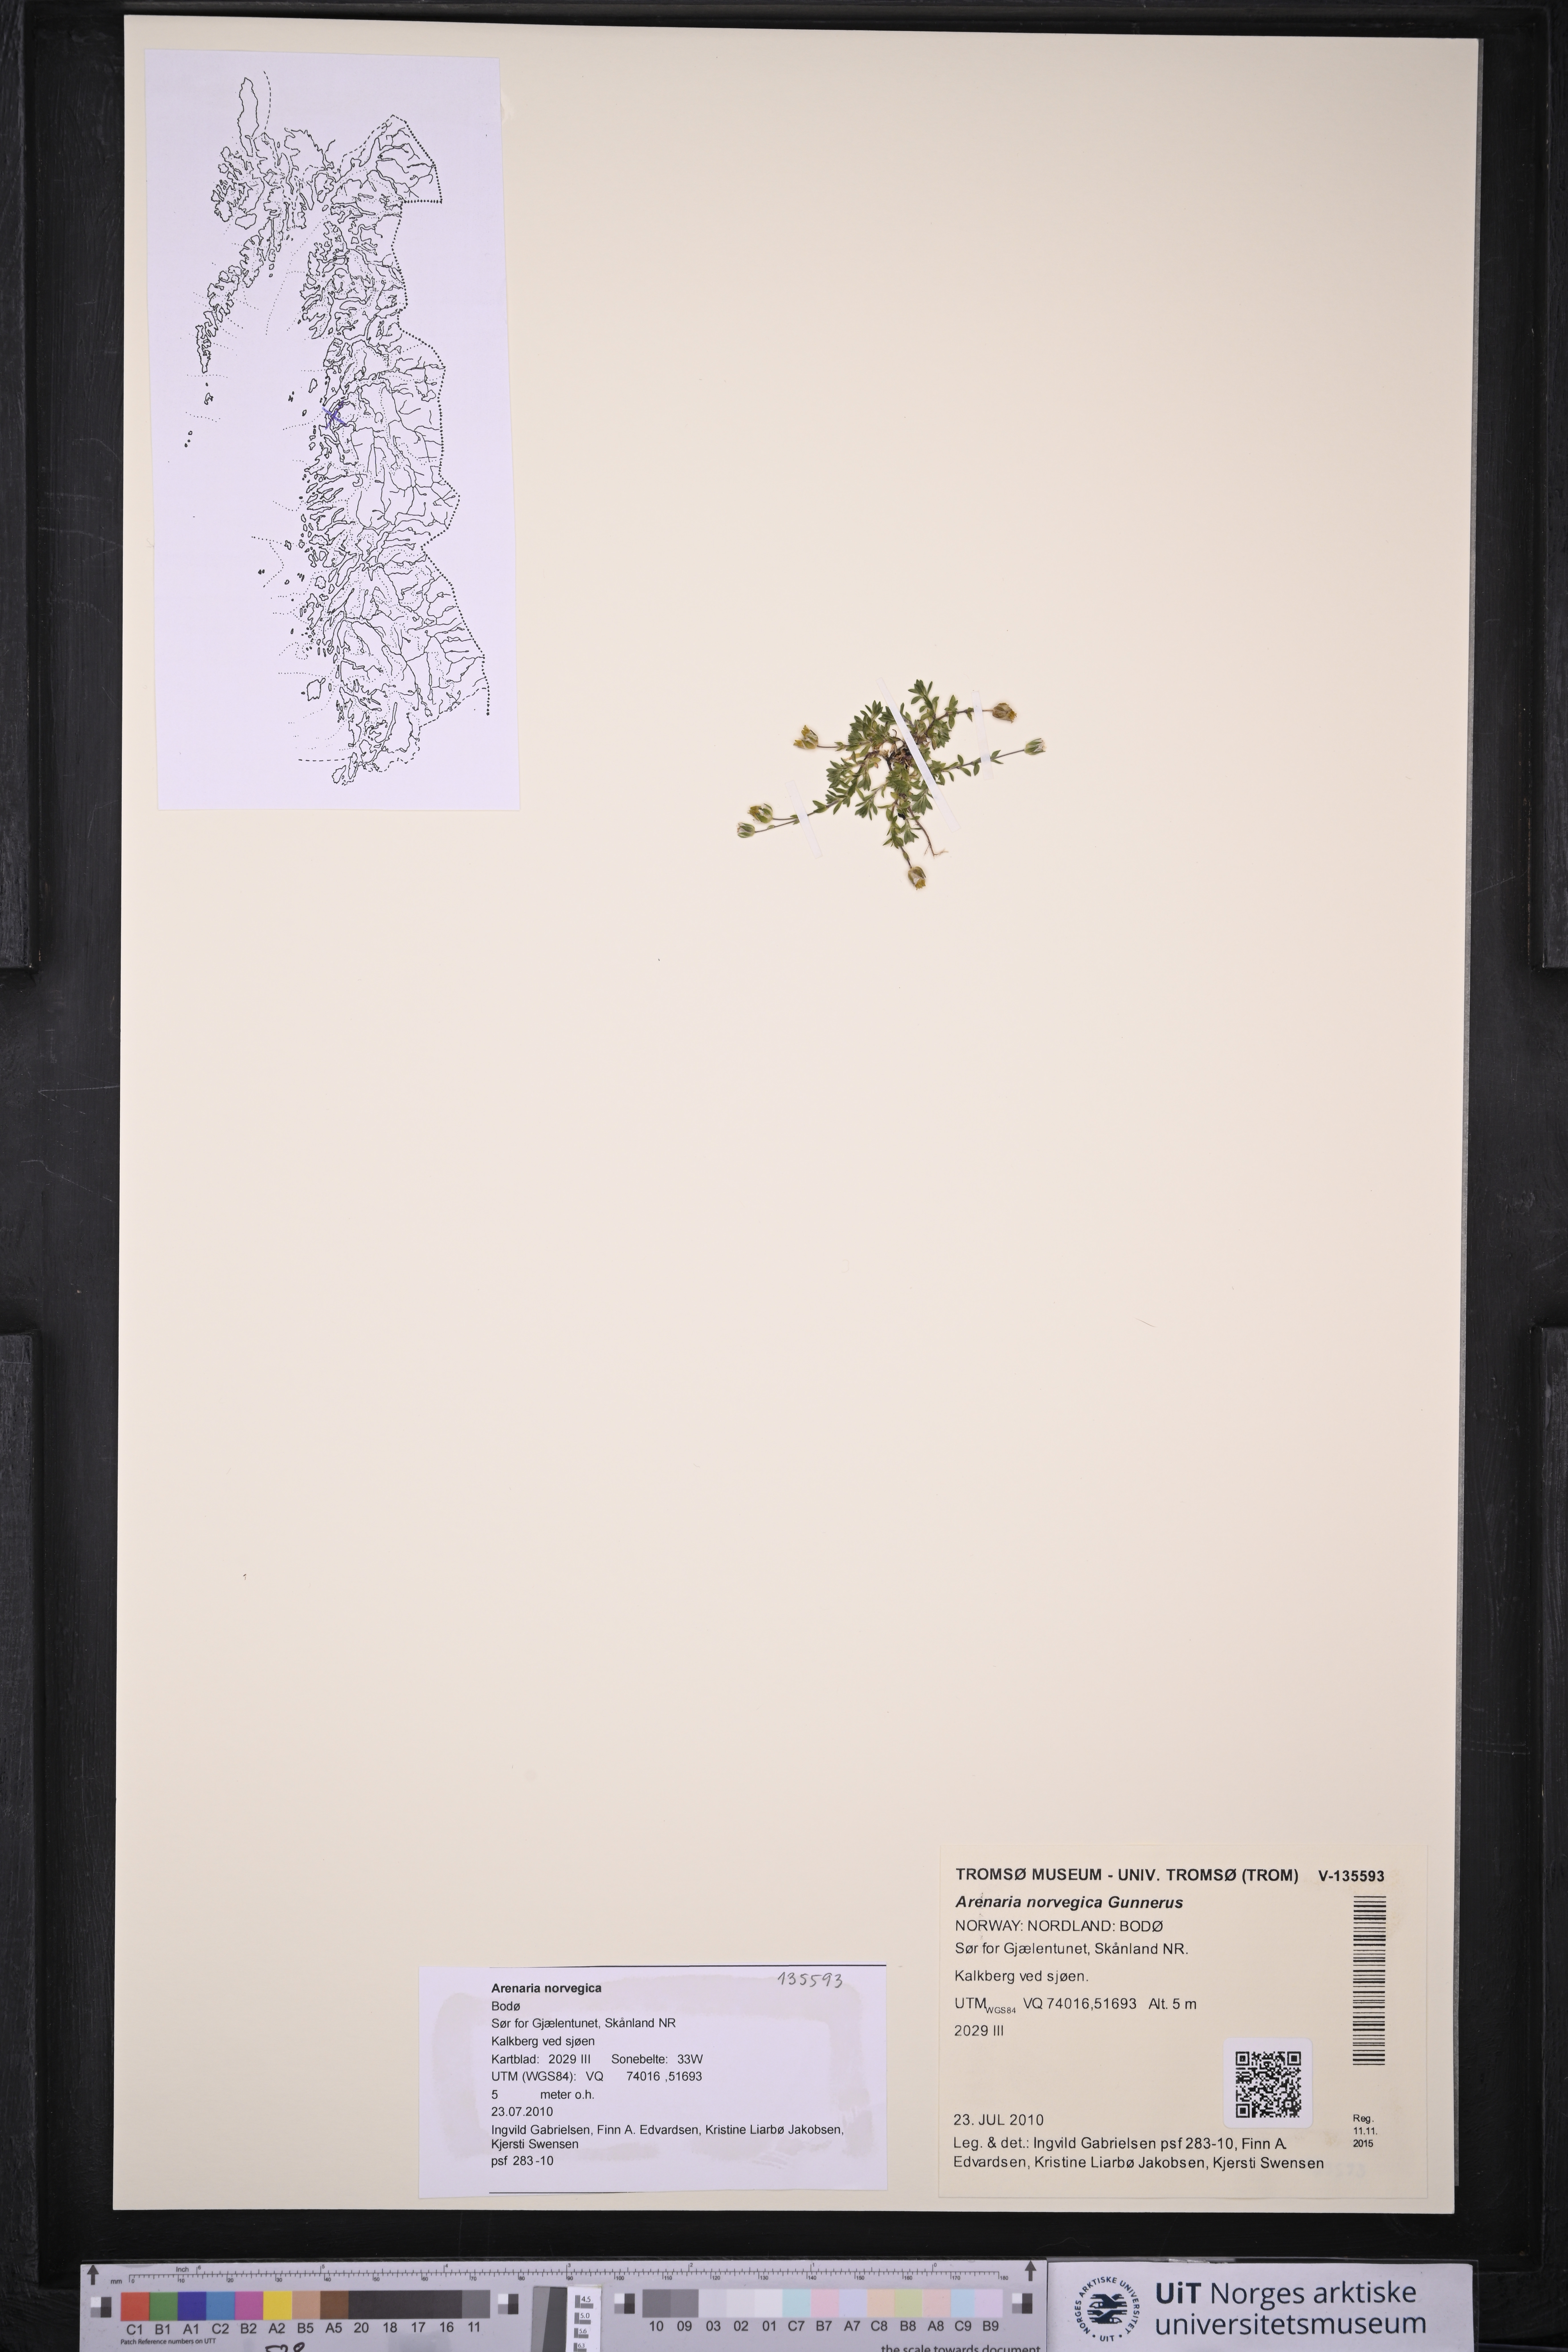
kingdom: Plantae
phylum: Tracheophyta
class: Magnoliopsida
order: Caryophyllales
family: Caryophyllaceae
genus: Arenaria
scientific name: Arenaria norvegica
